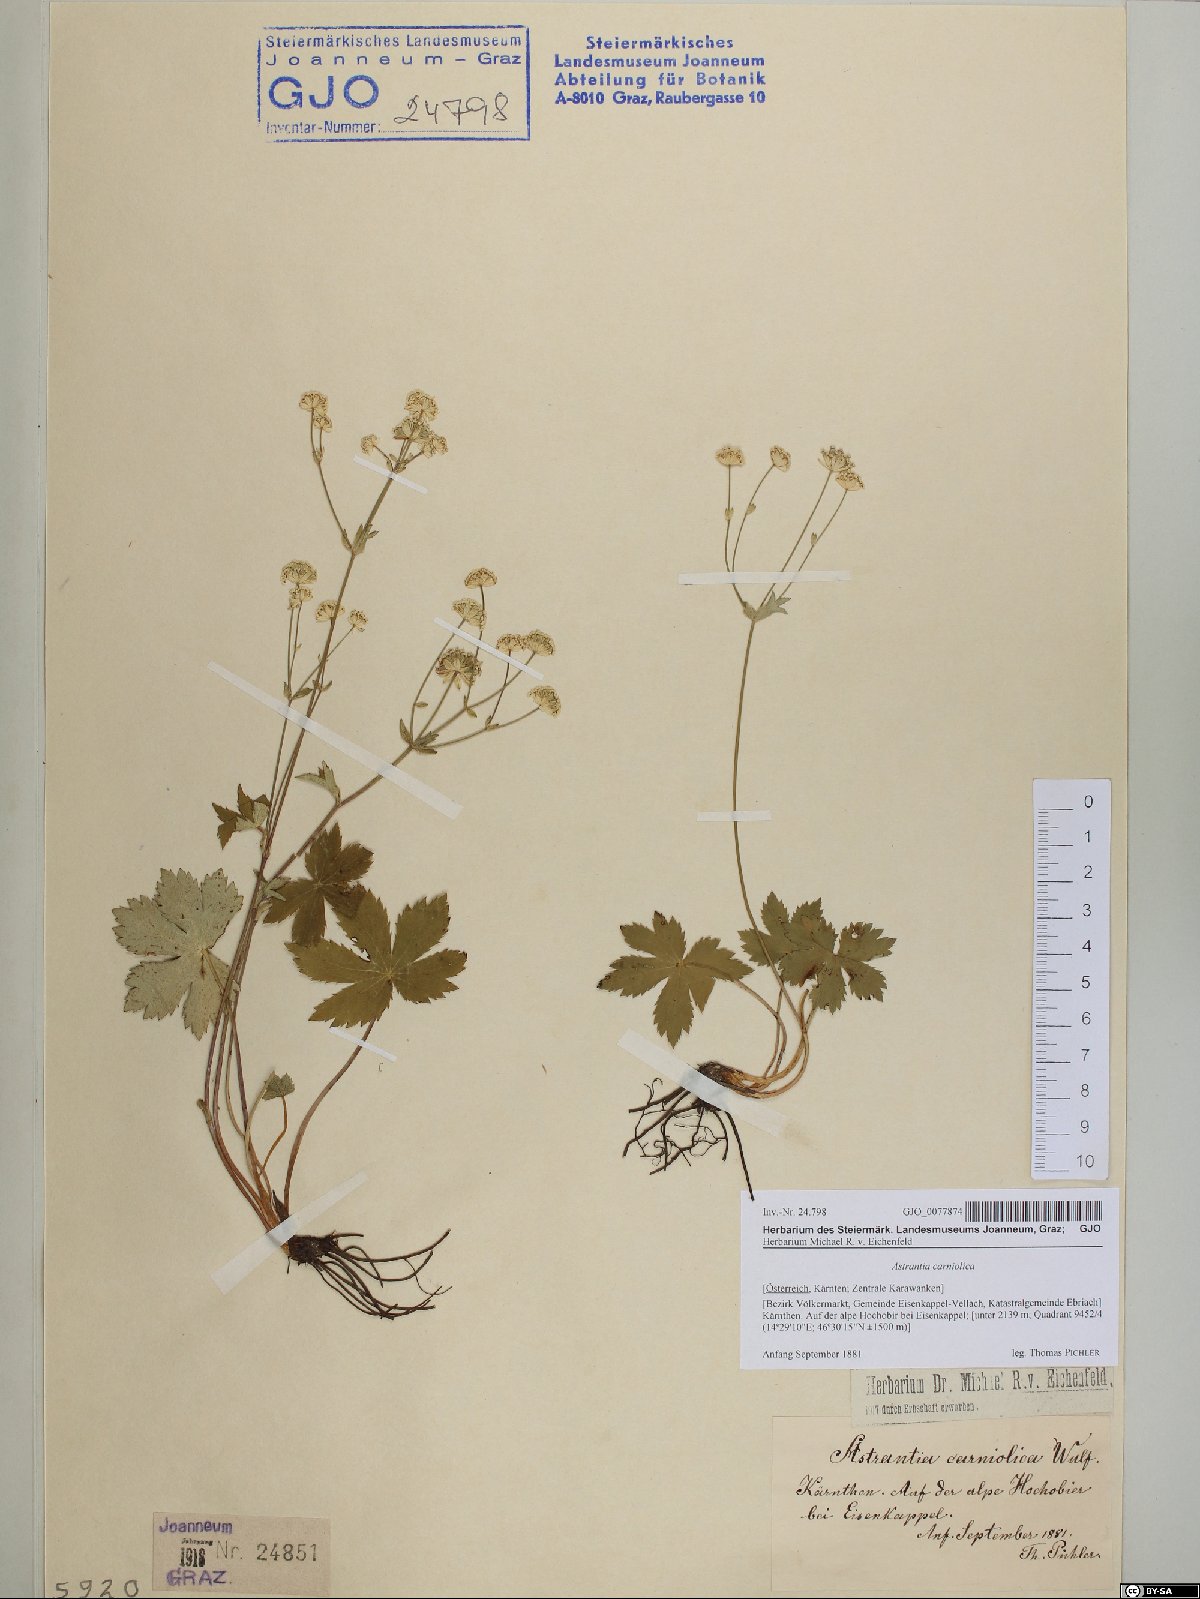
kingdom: Plantae
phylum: Tracheophyta
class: Magnoliopsida
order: Apiales
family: Apiaceae
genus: Astrantia
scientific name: Astrantia carniolica
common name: Carnic masterwort
